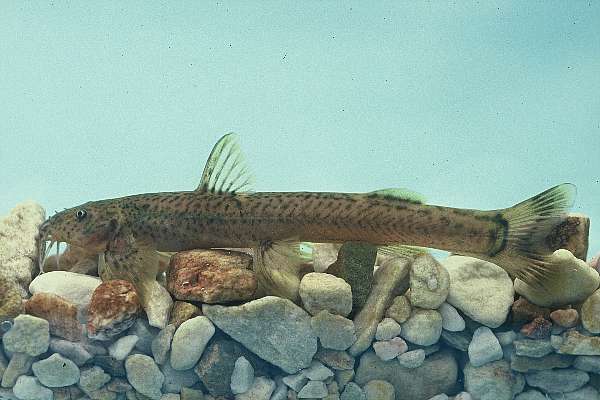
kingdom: Animalia
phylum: Chordata
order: Siluriformes
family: Schilbeidae
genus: Schilbe
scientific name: Schilbe intermedius
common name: Silver catfish
